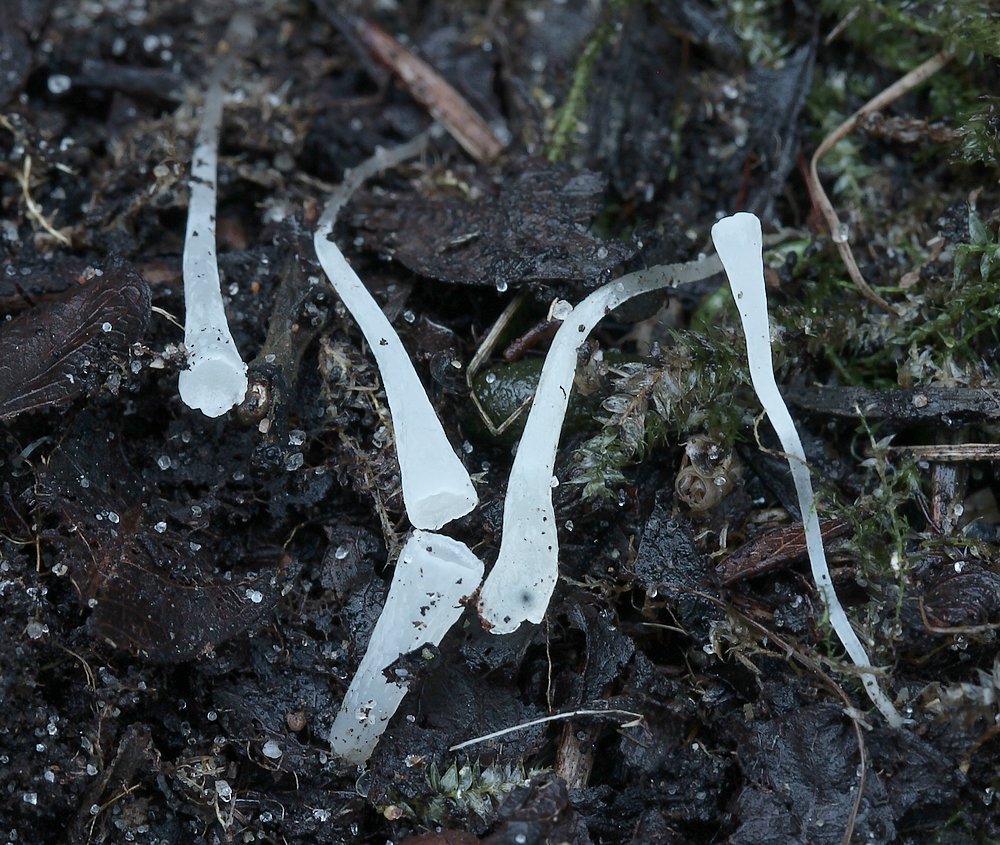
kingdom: Fungi
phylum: Basidiomycota
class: Agaricomycetes
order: Agaricales
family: Clavariaceae
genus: Clavicorona
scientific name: Clavicorona taxophila
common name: trompetkølle
